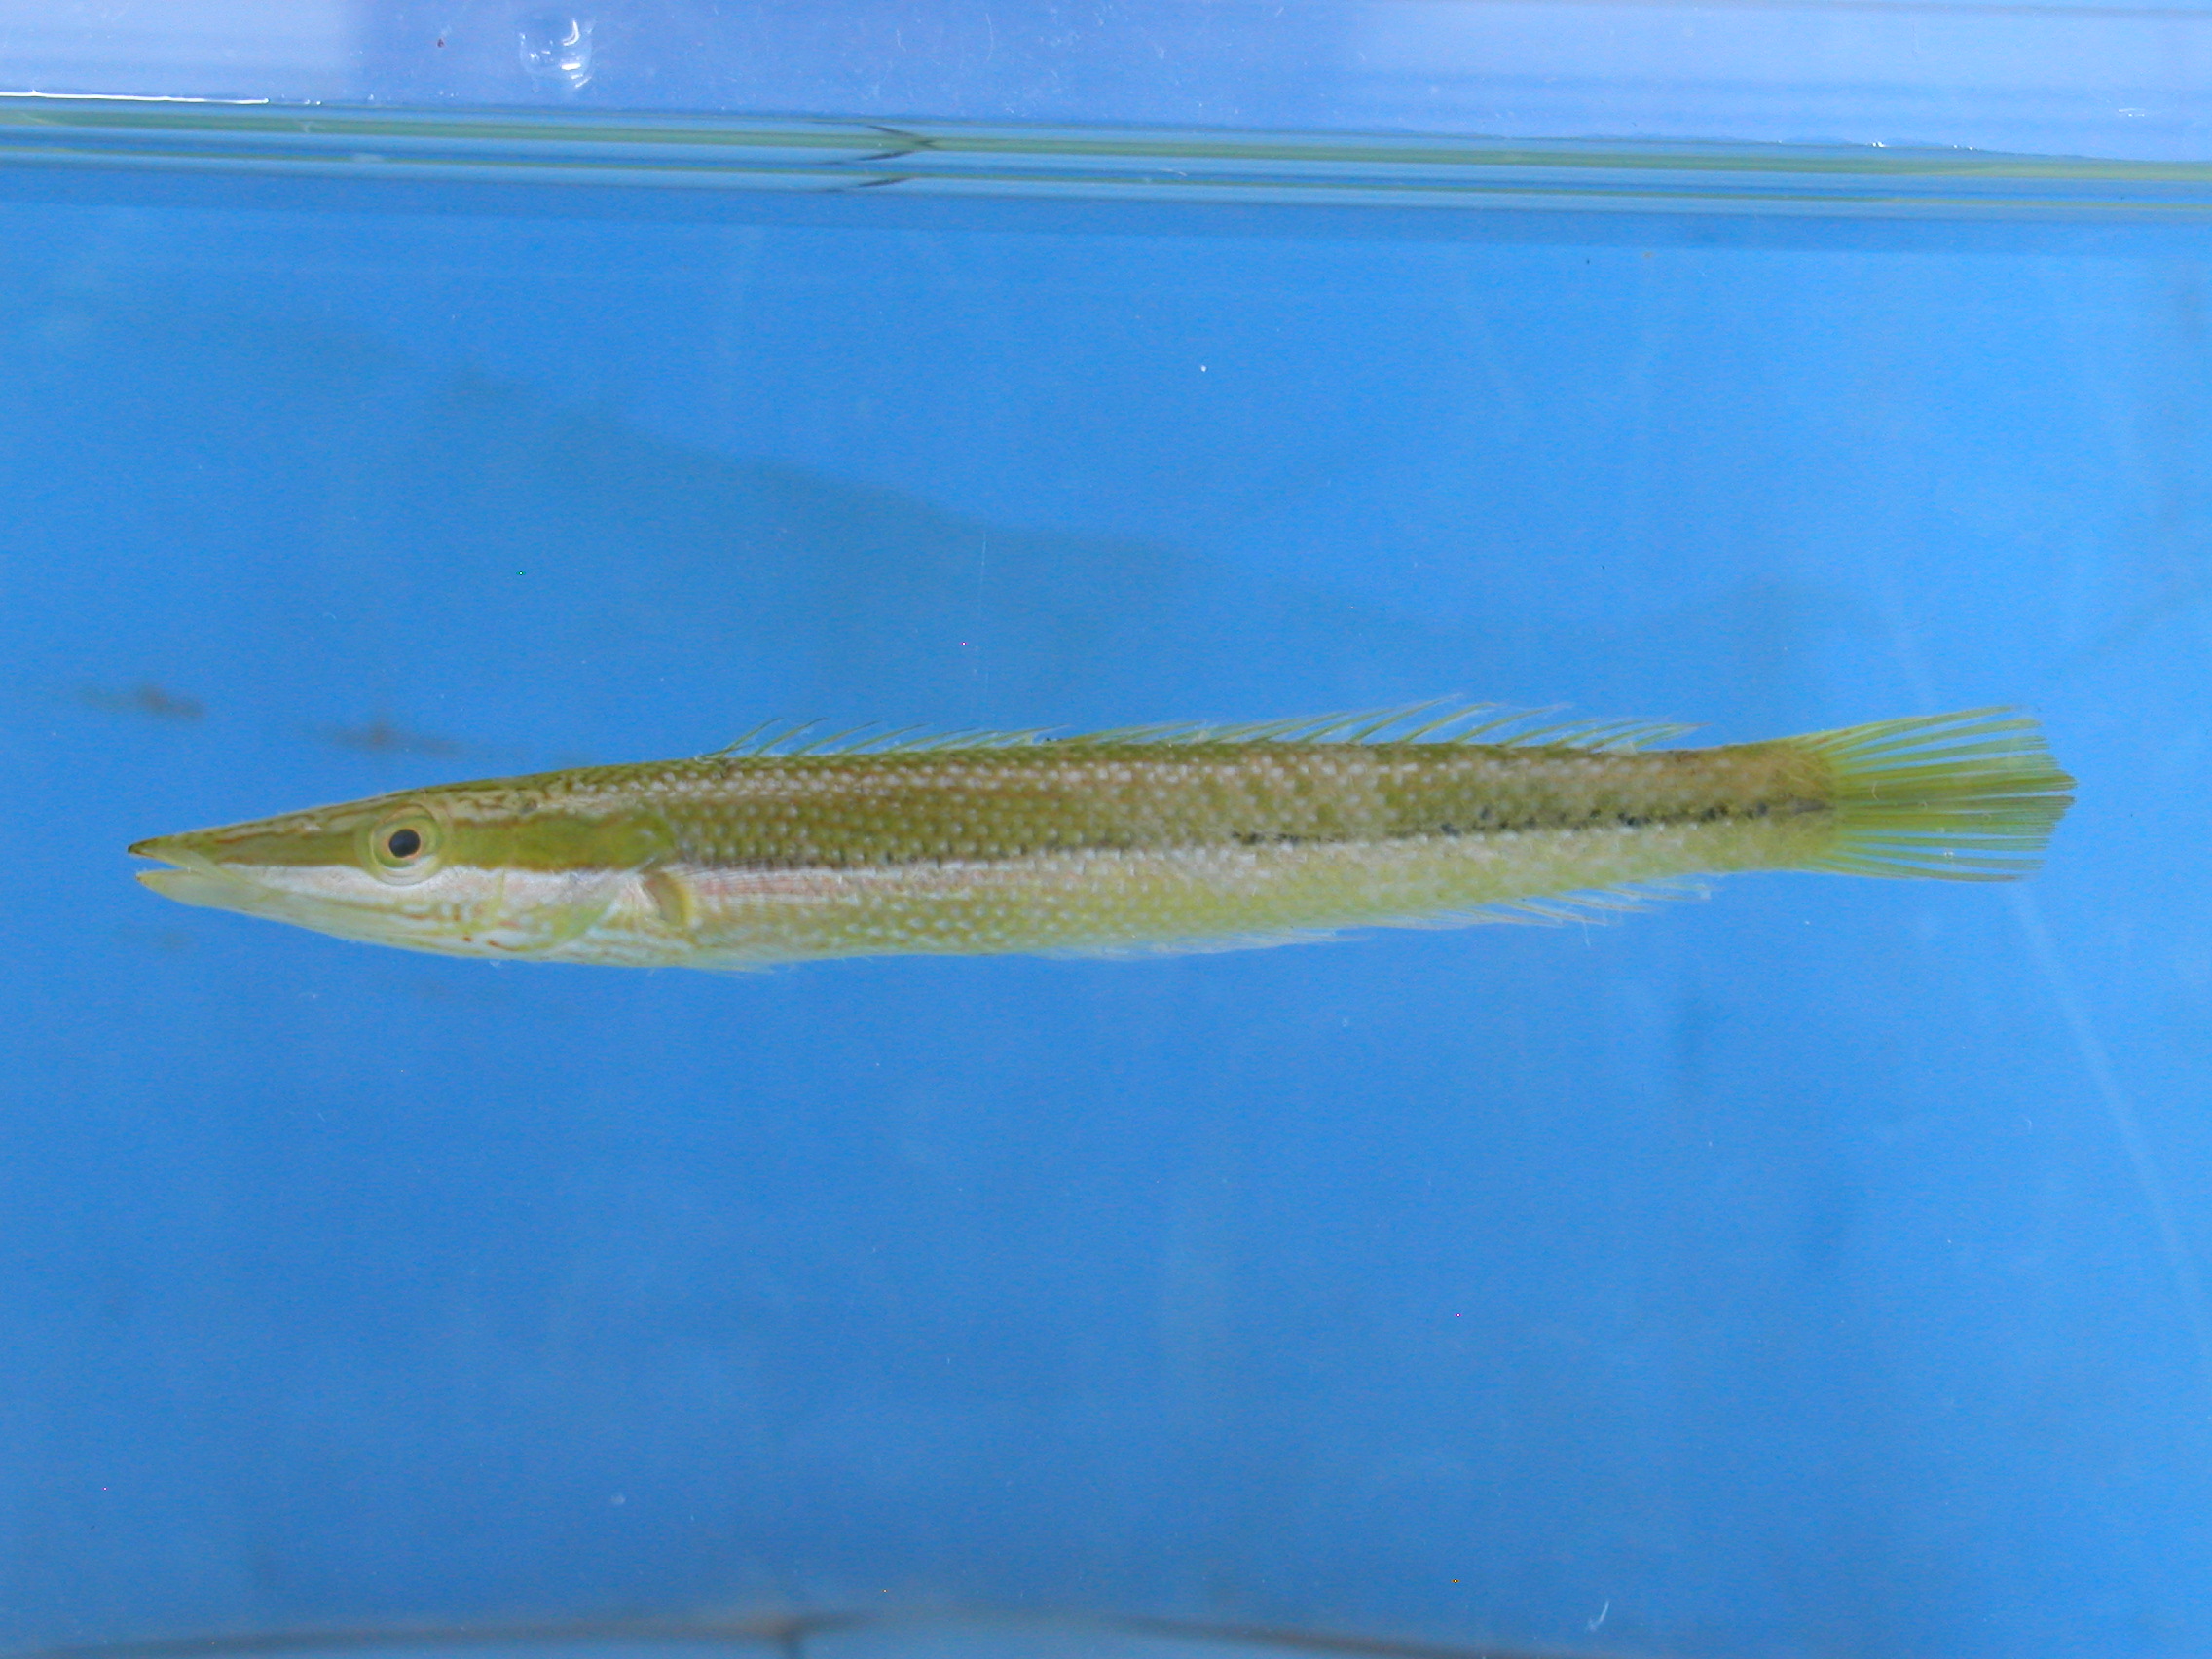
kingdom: Animalia
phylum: Chordata
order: Perciformes
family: Labridae
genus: Cheilio
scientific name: Cheilio inermis
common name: Cigar wrasse
